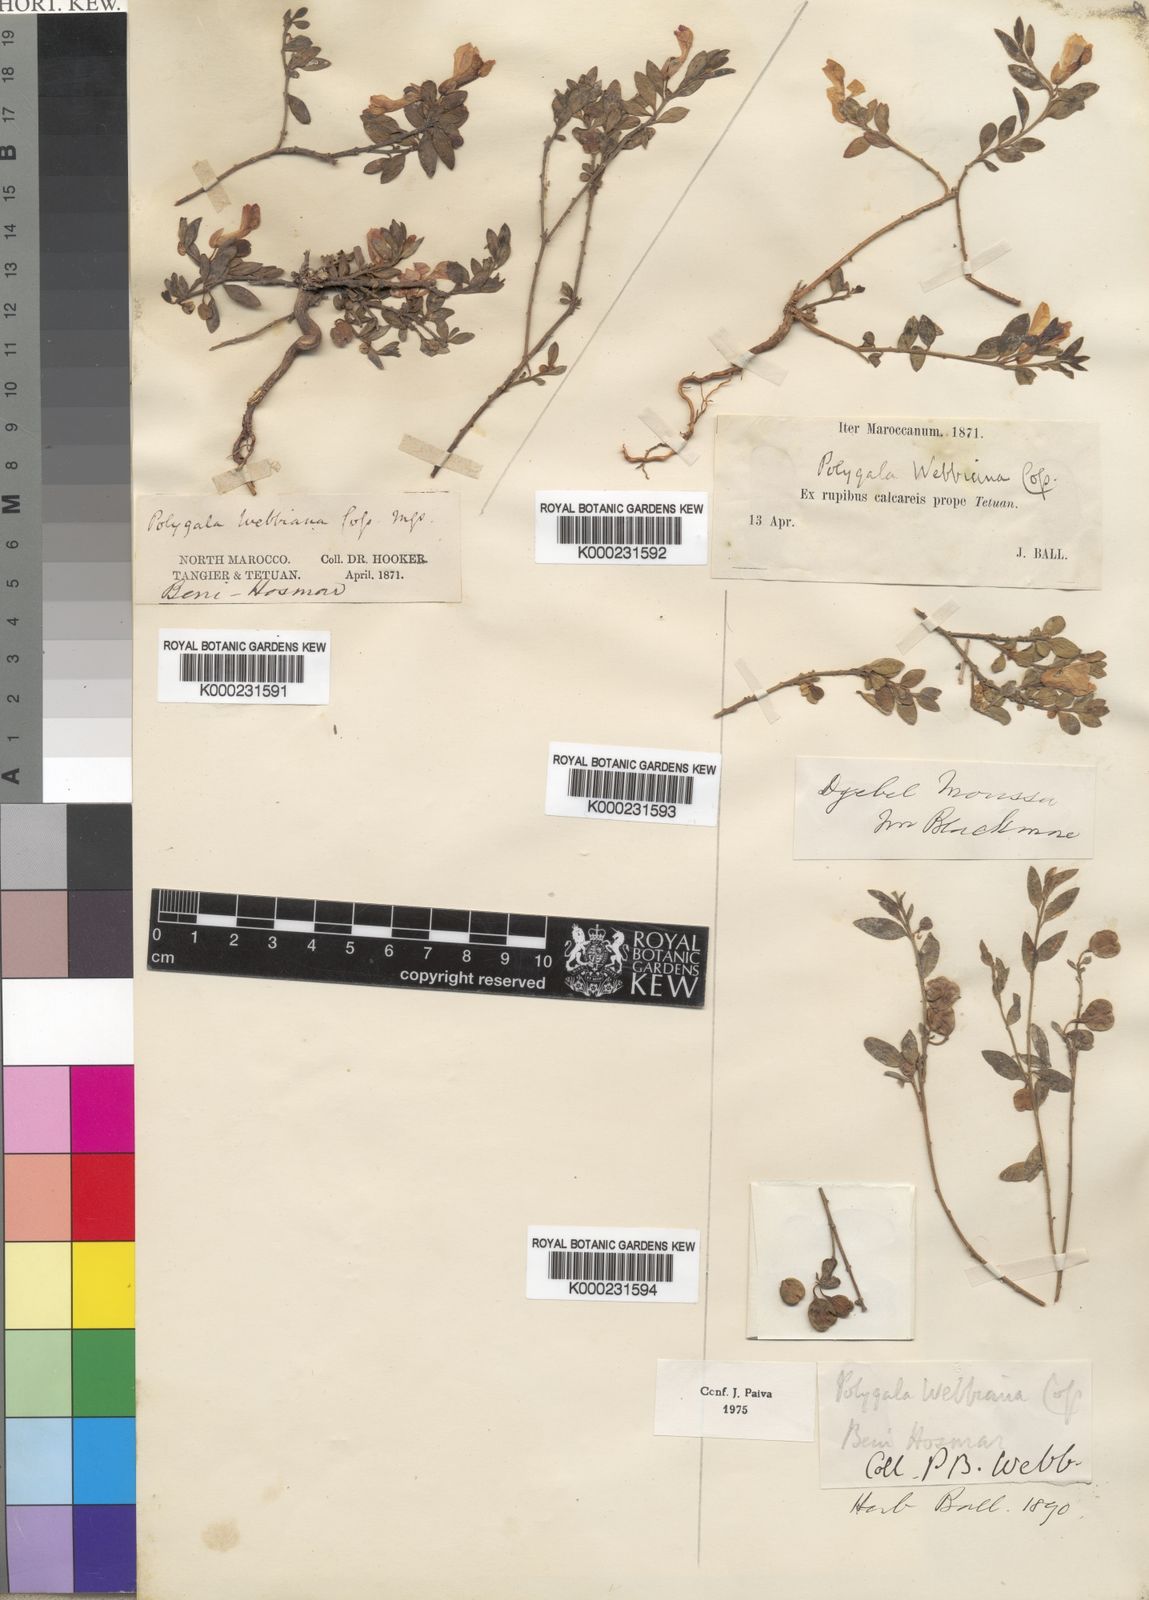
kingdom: Plantae
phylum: Tracheophyta
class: Magnoliopsida
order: Fabales
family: Polygalaceae
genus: Polygaloides
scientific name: Polygaloides webbiana
